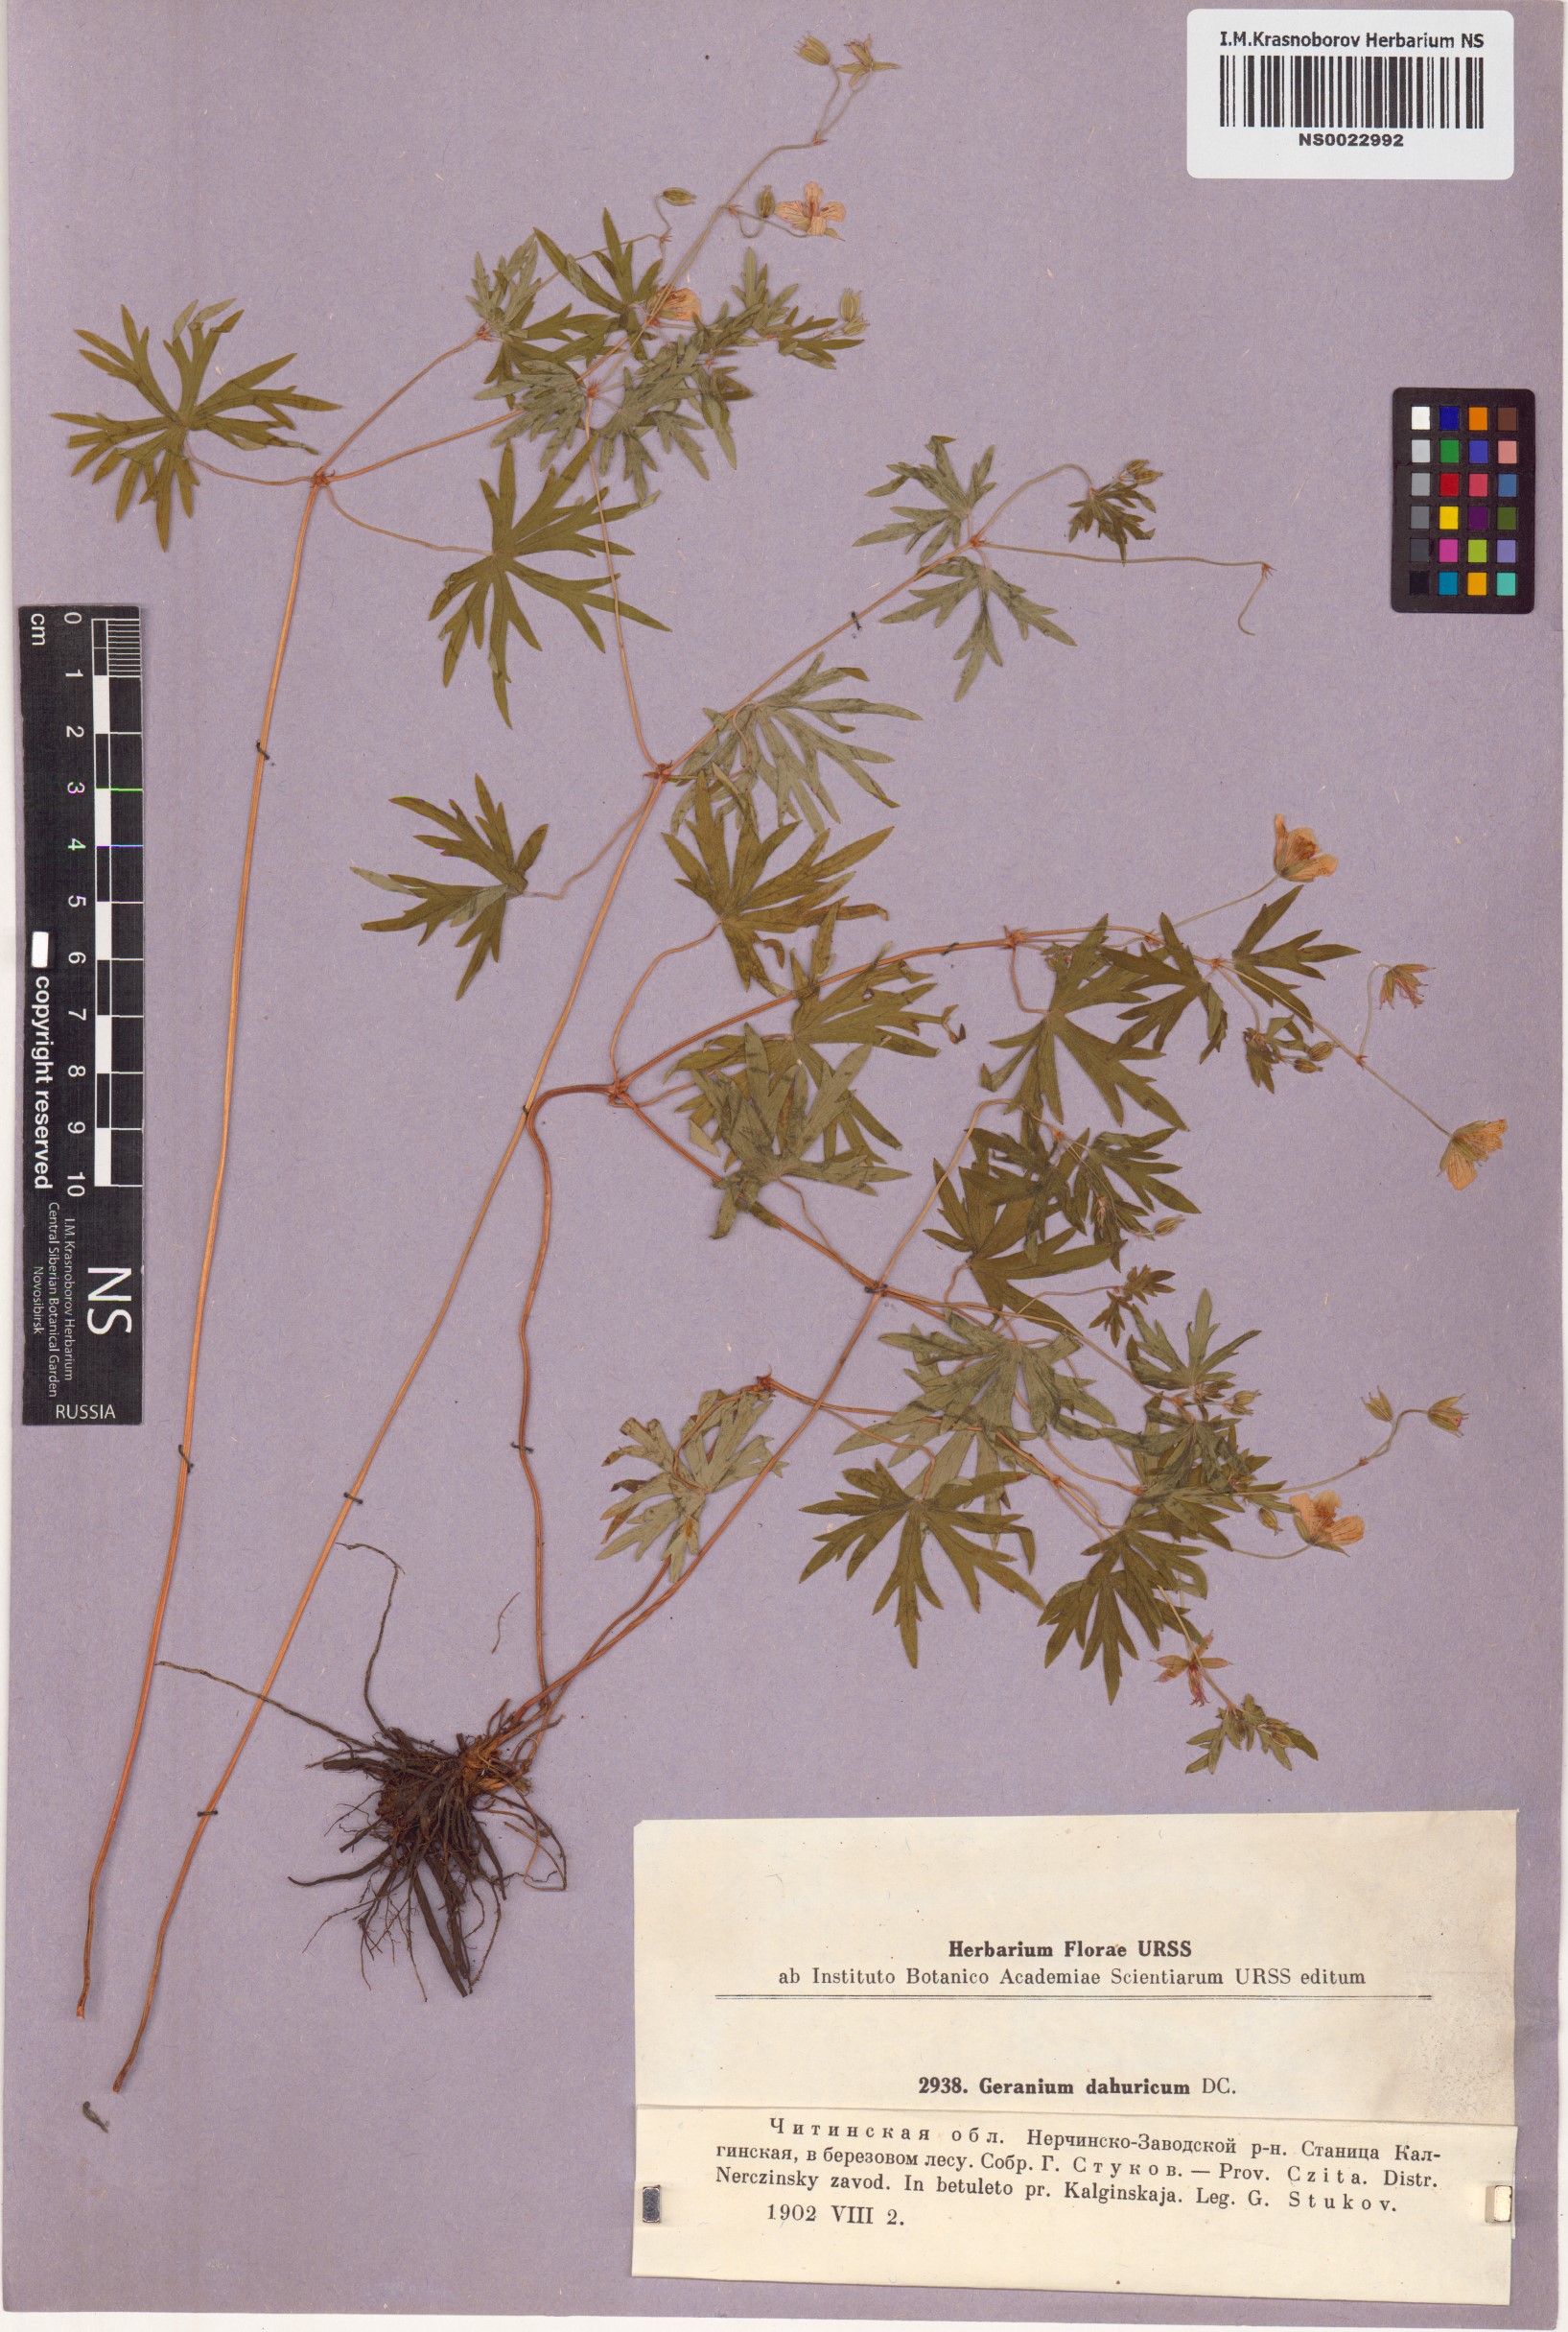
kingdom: Plantae
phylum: Tracheophyta
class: Magnoliopsida
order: Geraniales
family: Geraniaceae
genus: Geranium
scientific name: Geranium dahuricum
